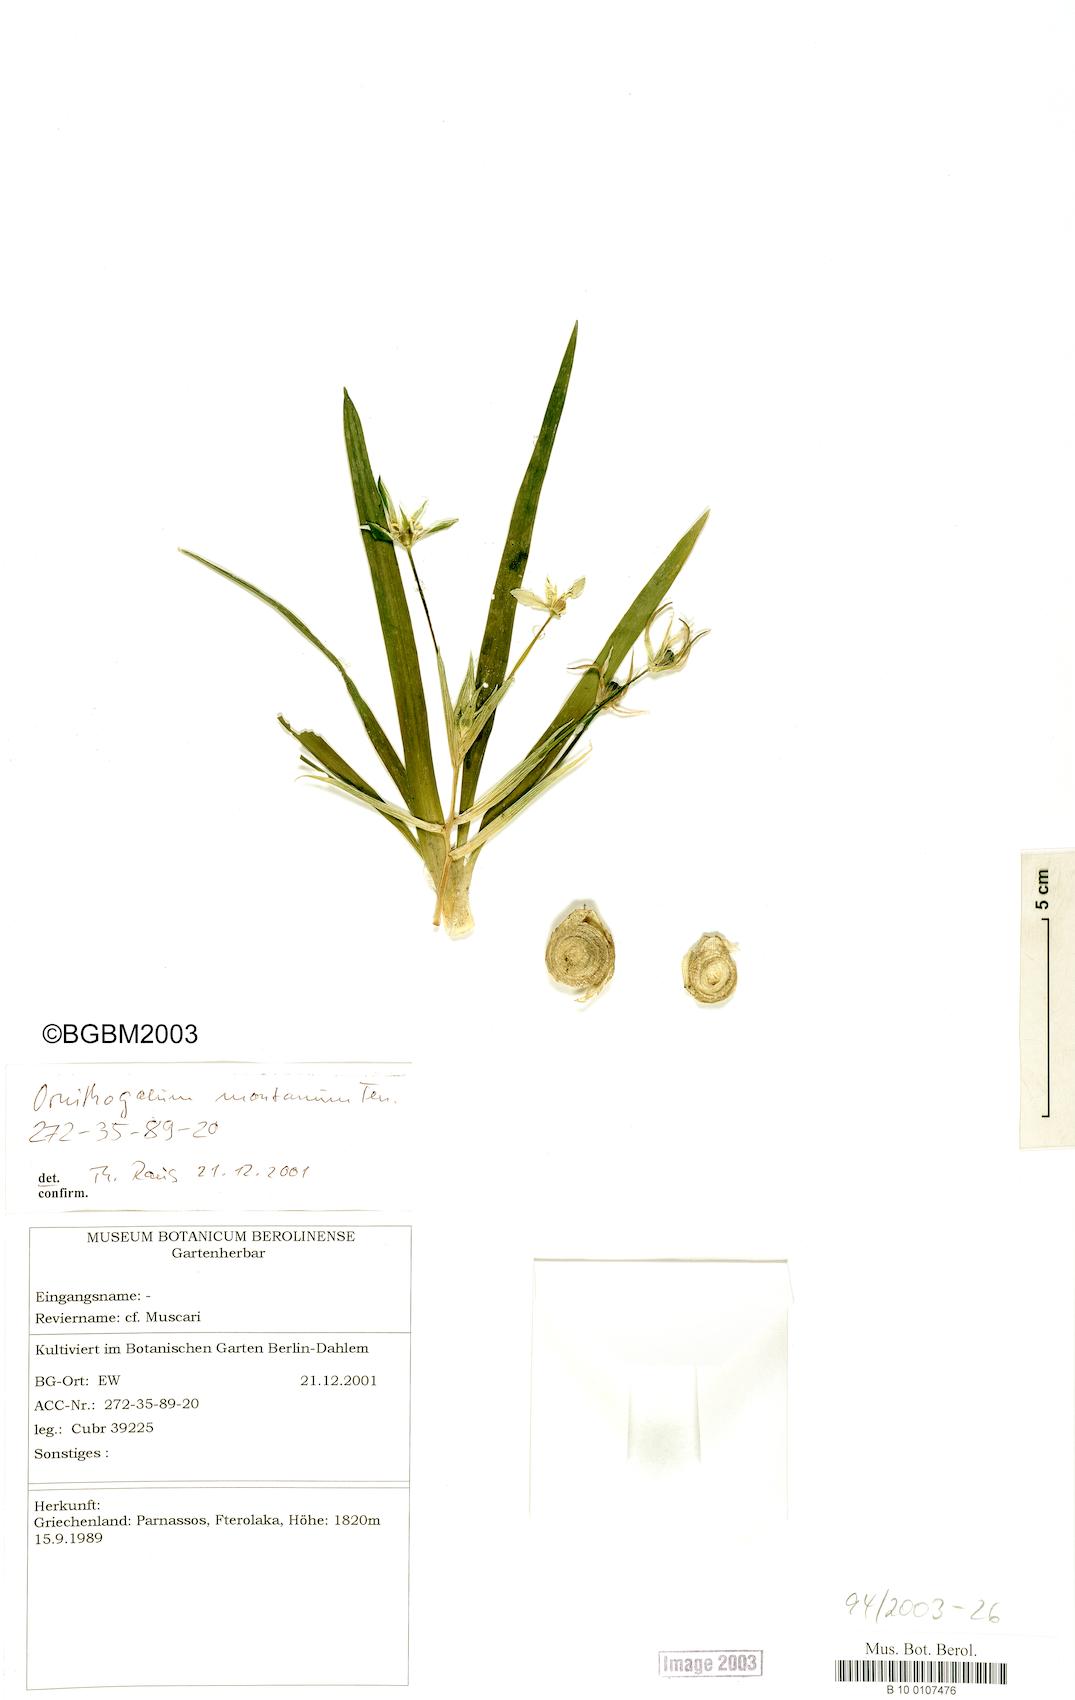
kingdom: Plantae
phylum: Tracheophyta
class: Liliopsida
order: Asparagales
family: Asparagaceae
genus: Ornithogalum
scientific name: Ornithogalum montanum
